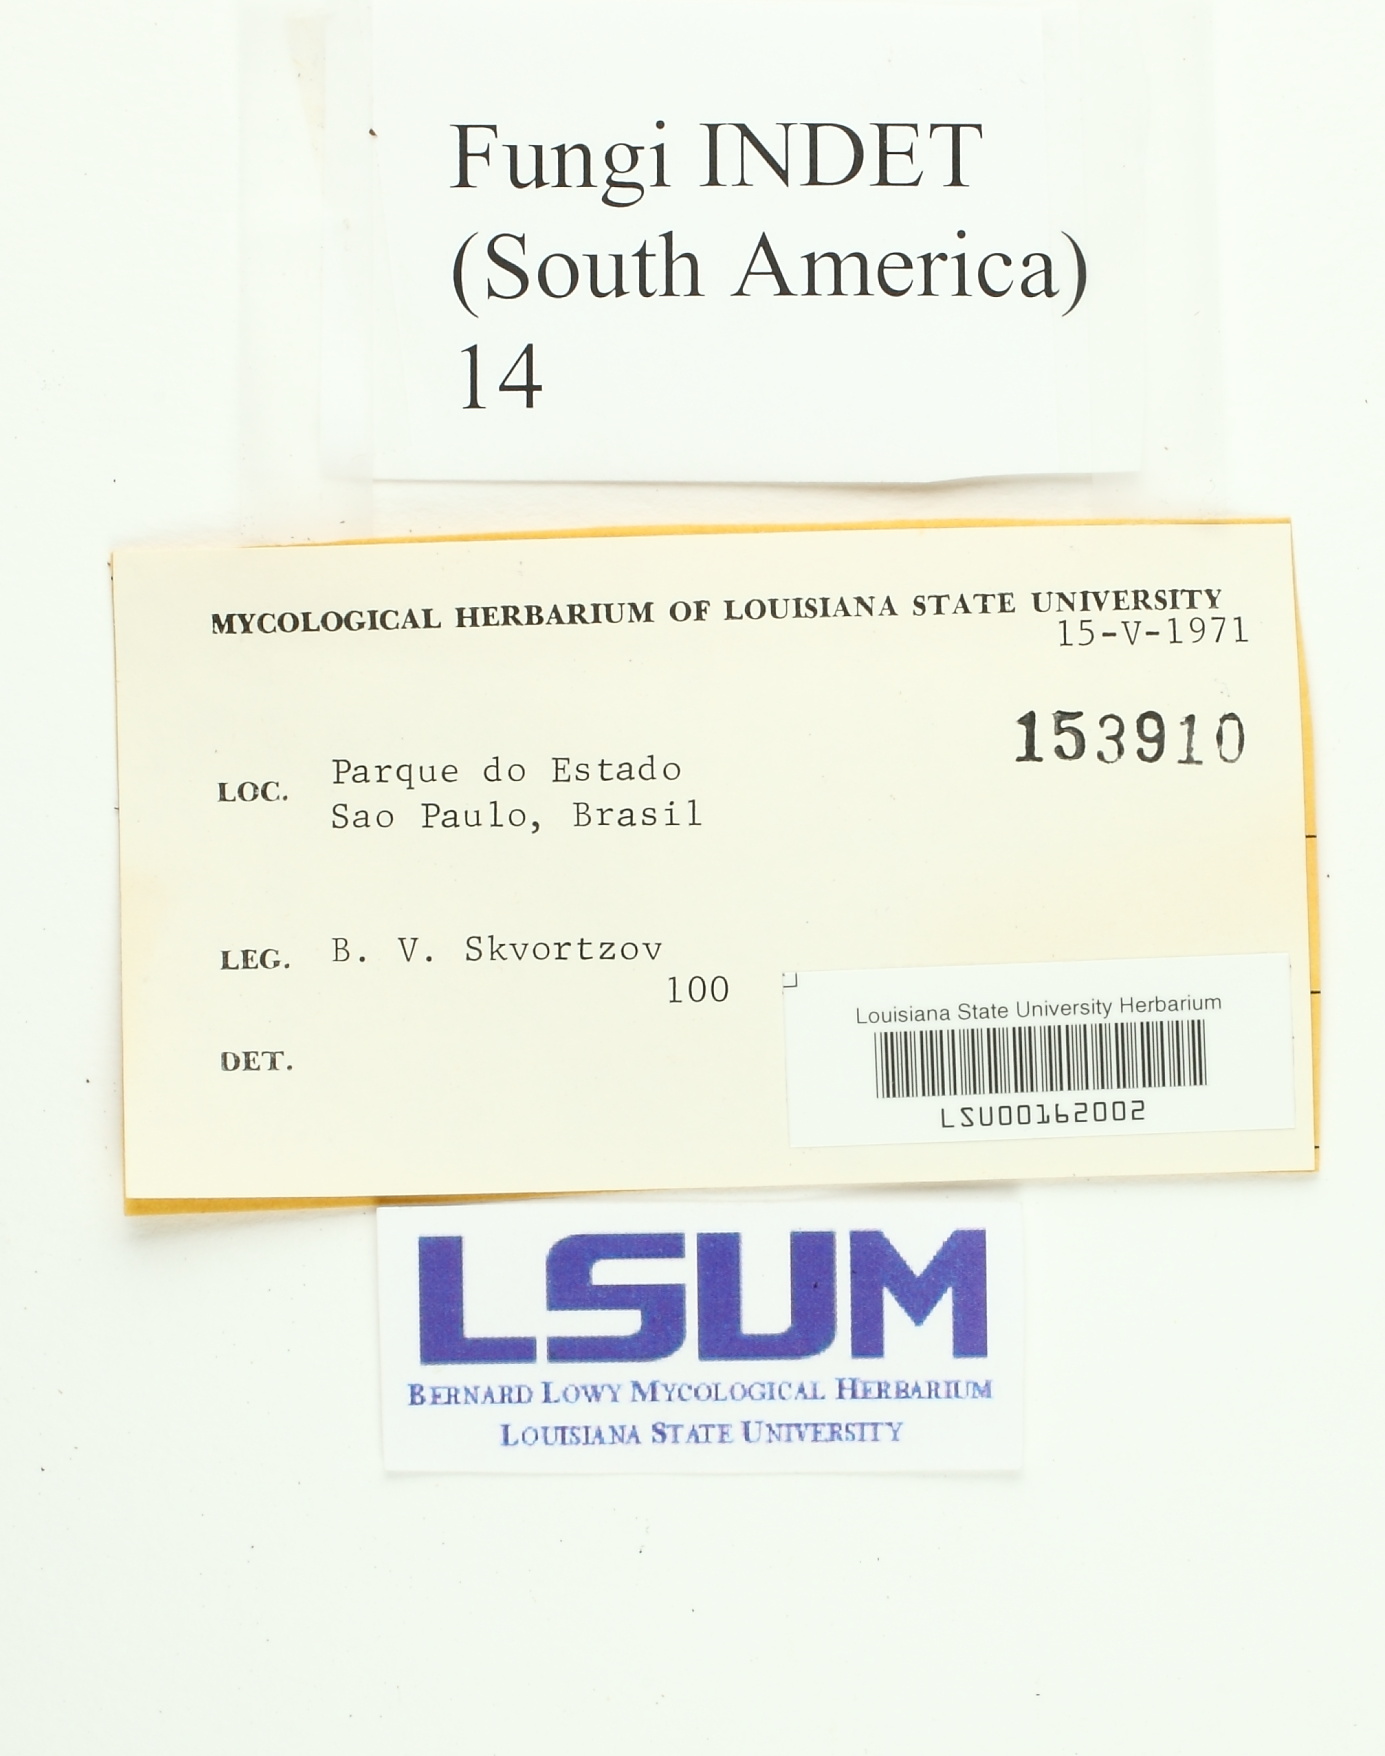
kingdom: Fungi
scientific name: Fungi
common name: Fungi
